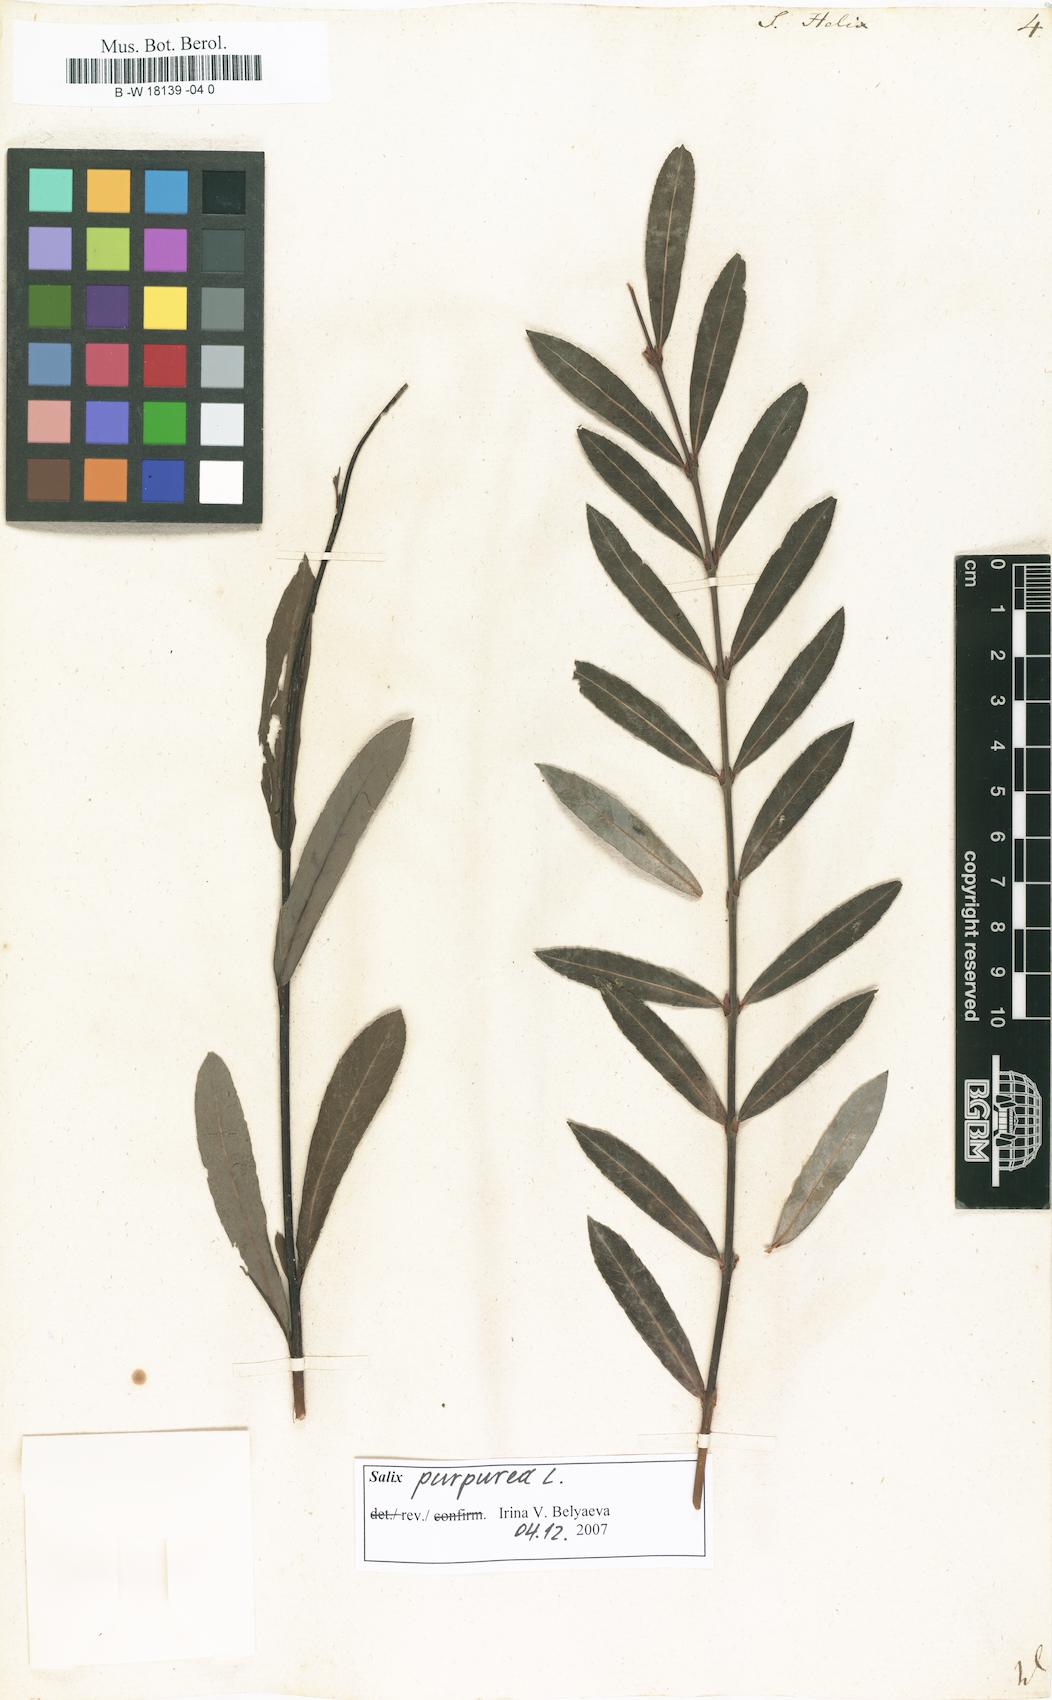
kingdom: Plantae
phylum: Tracheophyta
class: Magnoliopsida
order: Malpighiales
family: Salicaceae
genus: Salix
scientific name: Salix purpurea
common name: Purple willow
